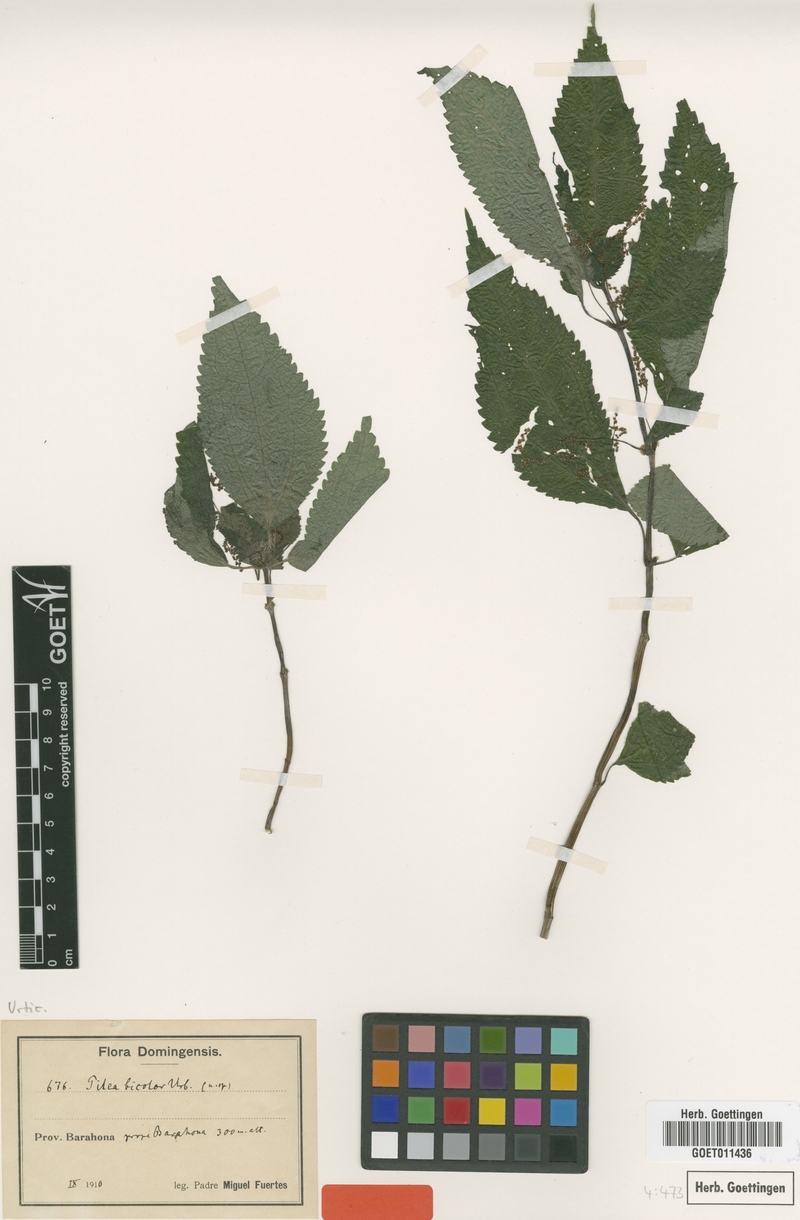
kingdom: Plantae
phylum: Tracheophyta
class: Magnoliopsida
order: Rosales
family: Urticaceae
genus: Pilea
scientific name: Pilea bicolor
